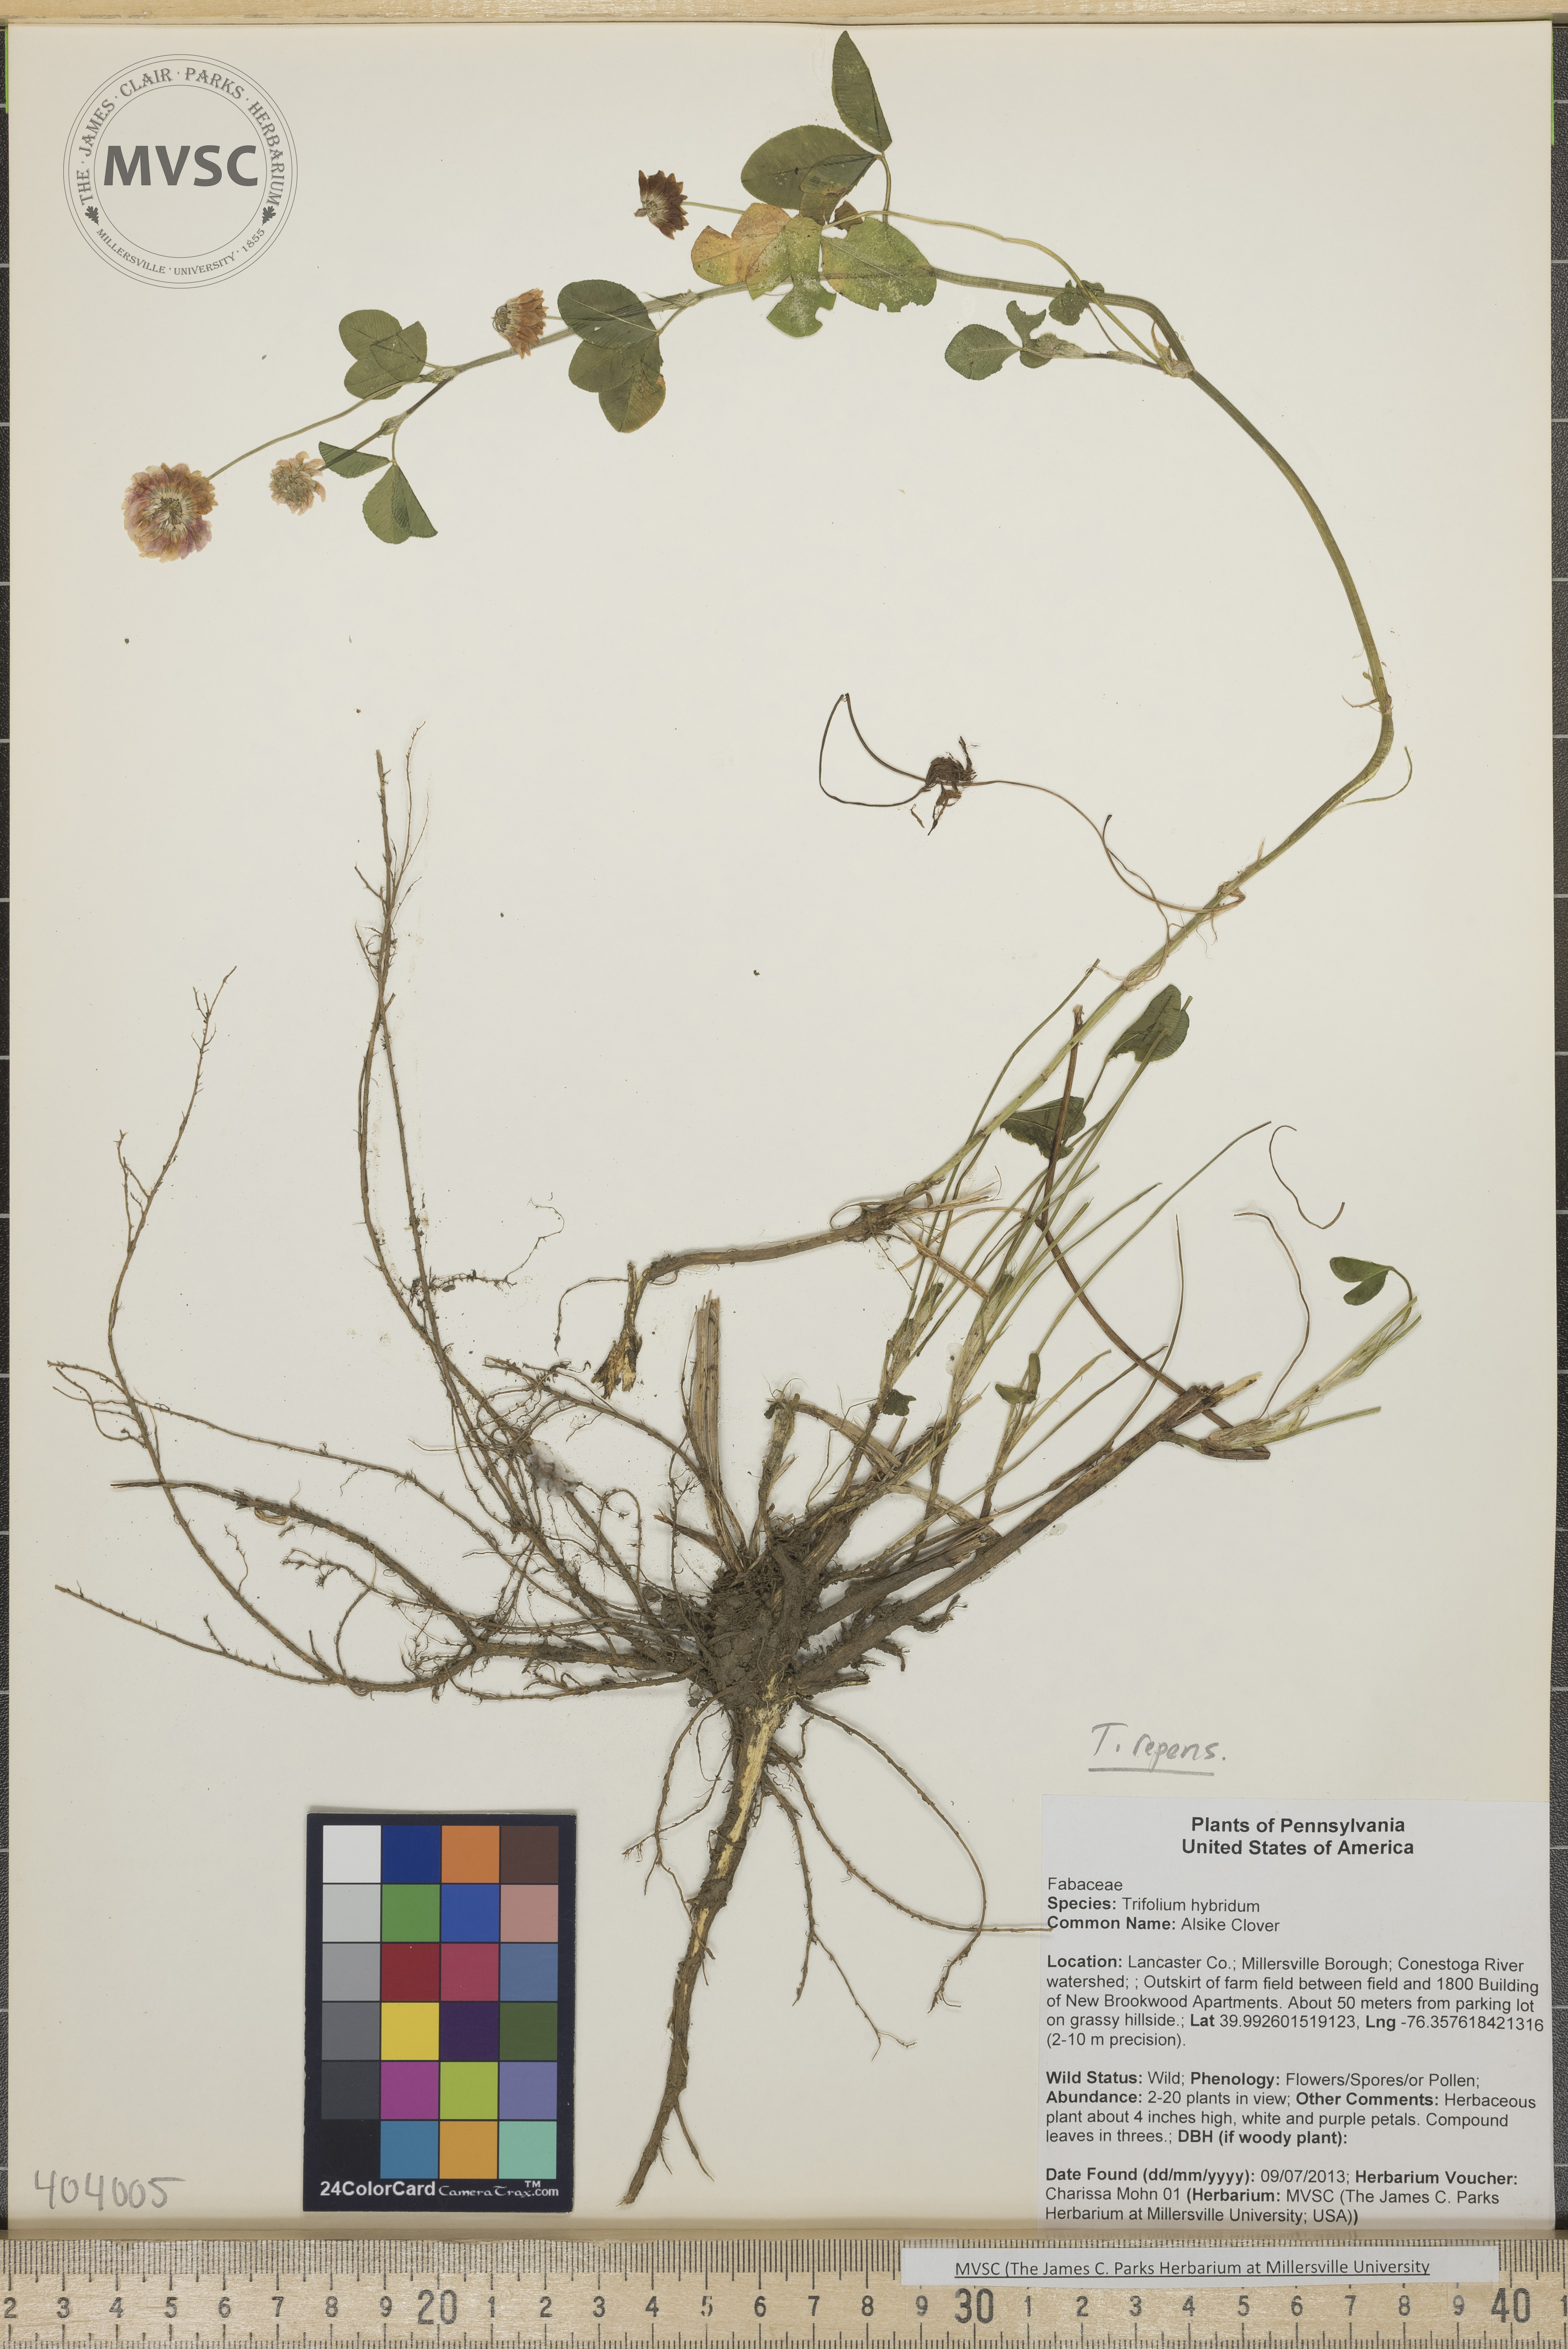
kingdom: Plantae
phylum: Tracheophyta
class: Magnoliopsida
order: Fabales
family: Fabaceae
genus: Trifolium
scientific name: Trifolium repens
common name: Clover
